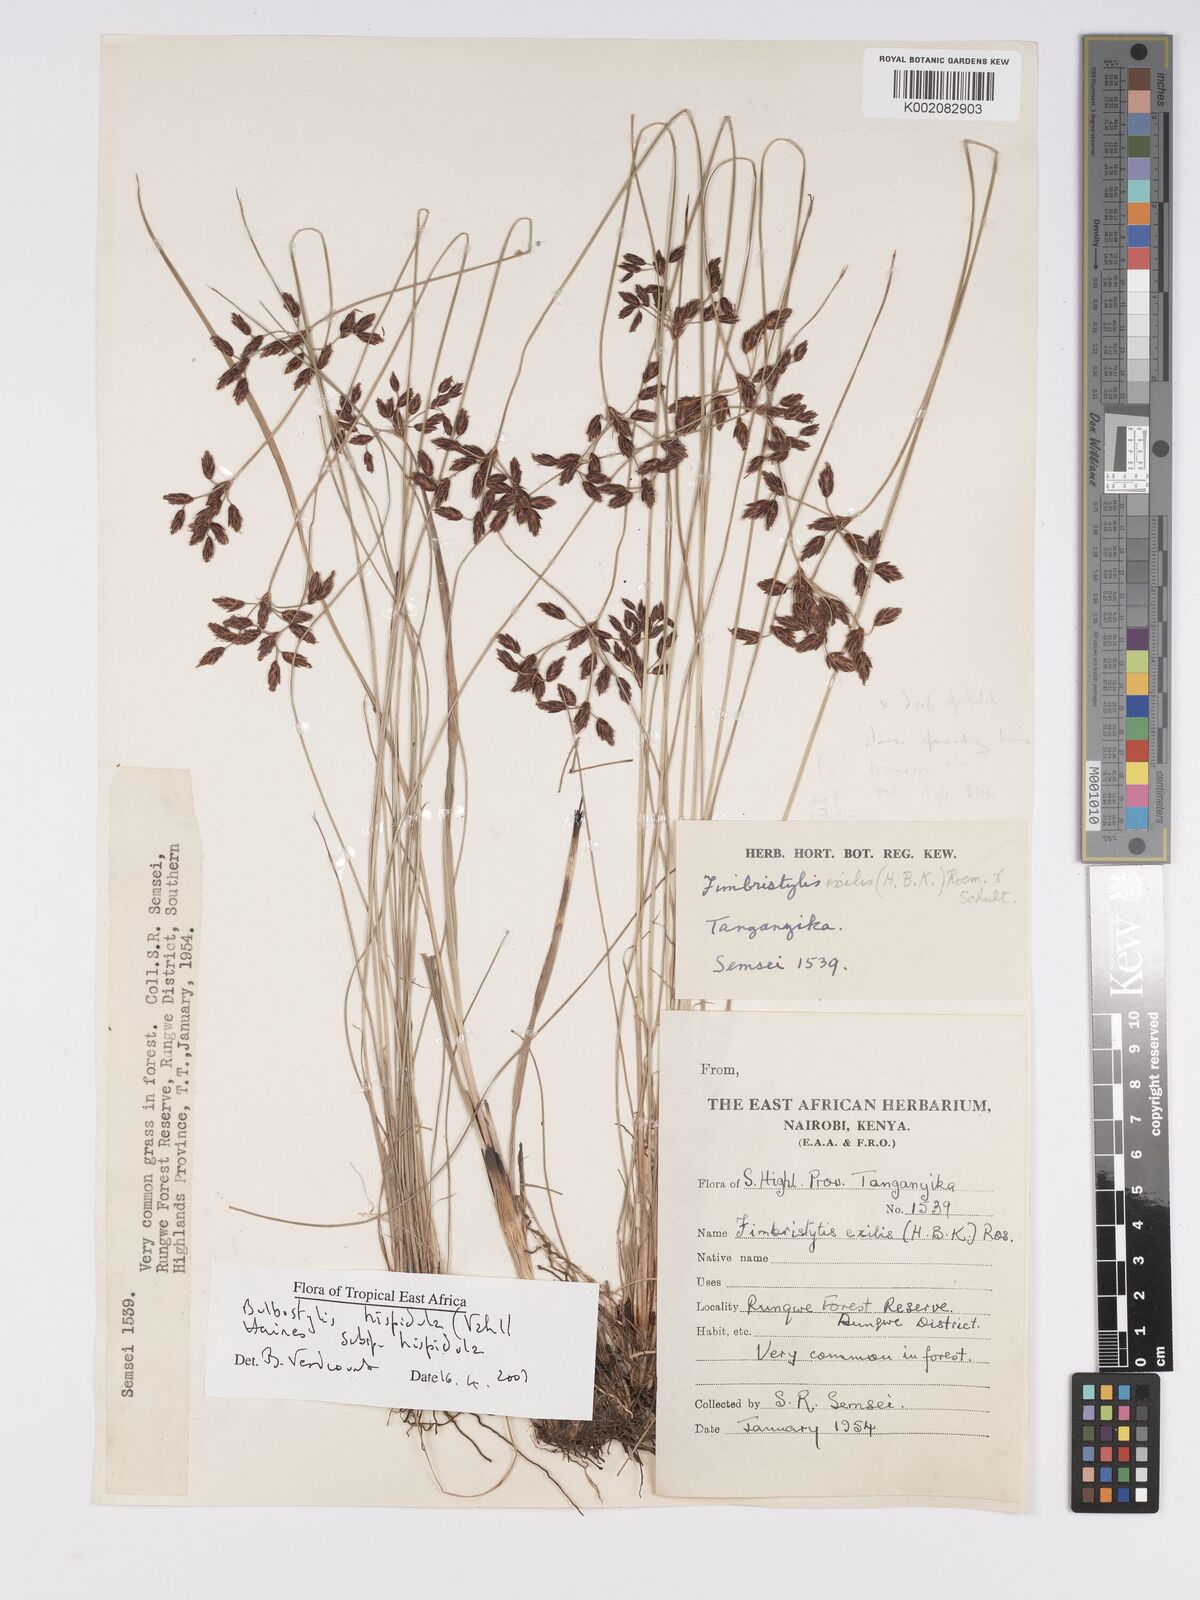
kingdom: Plantae
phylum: Tracheophyta
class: Liliopsida
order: Poales
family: Cyperaceae
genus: Bulbostylis
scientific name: Bulbostylis hispidula
